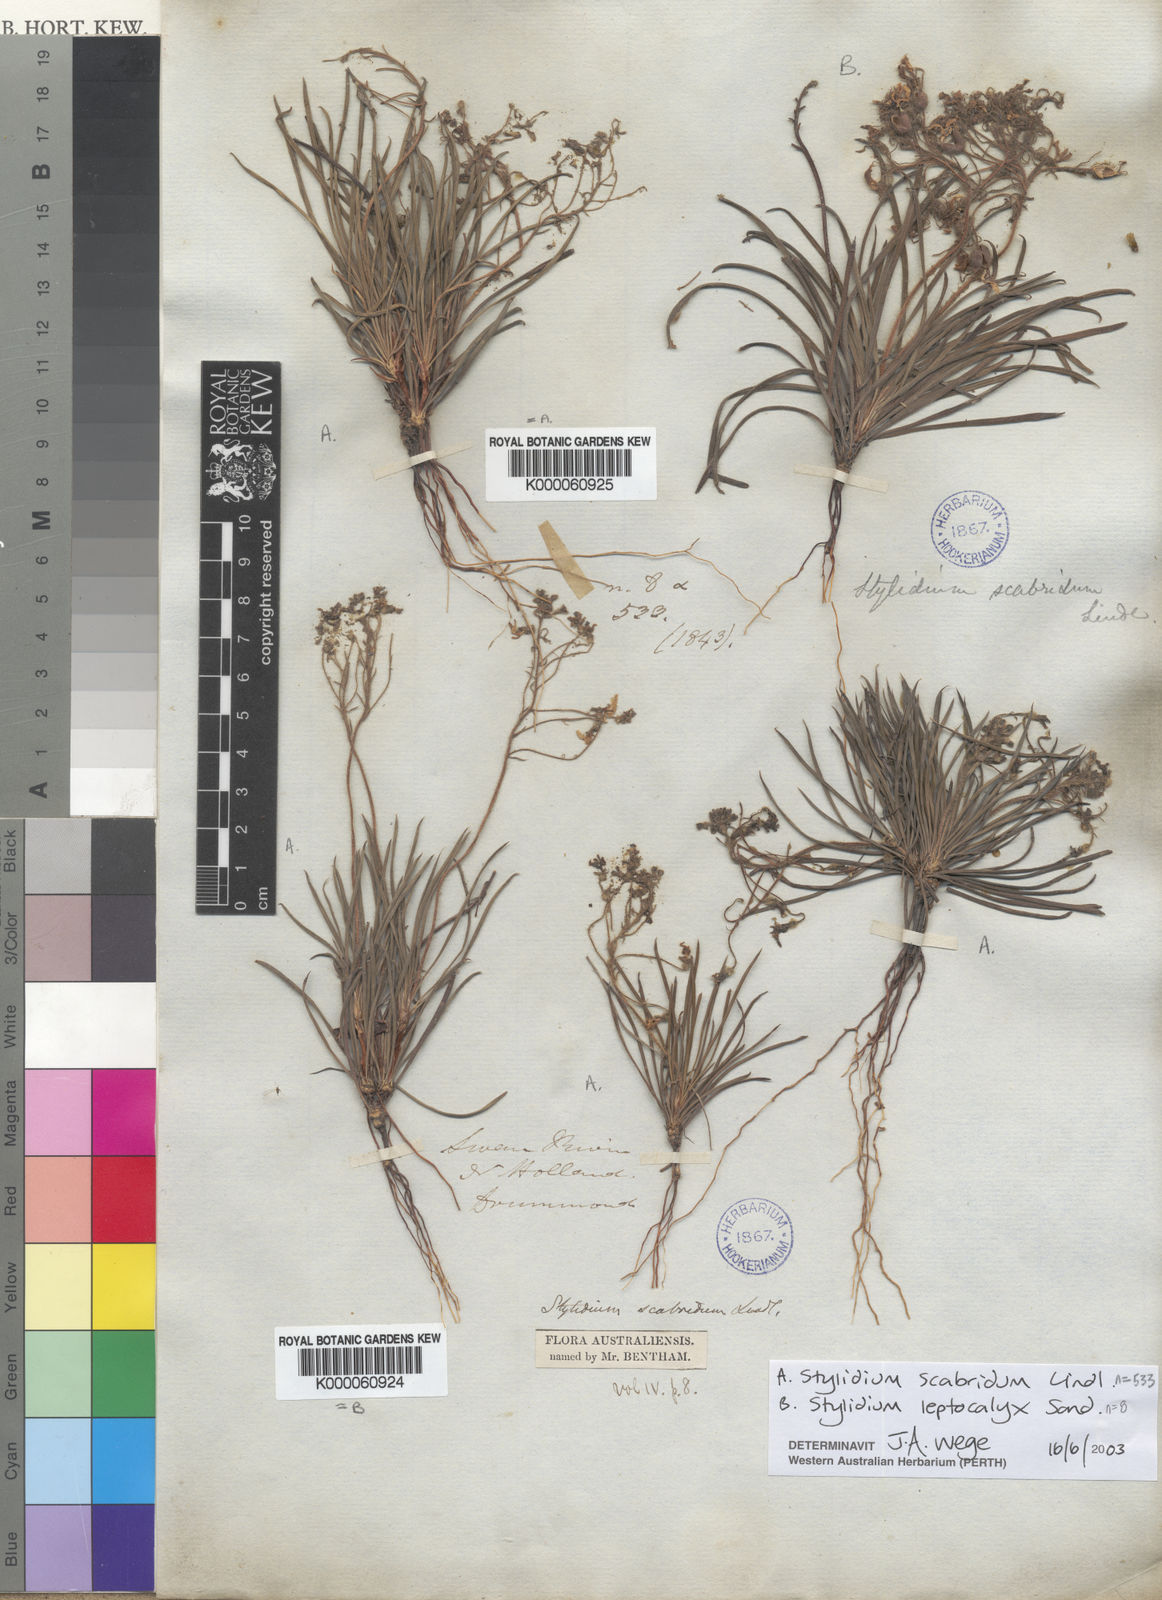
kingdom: Plantae
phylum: Tracheophyta
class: Magnoliopsida
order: Asterales
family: Stylidiaceae
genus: Stylidium
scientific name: Stylidium leptocalyx
